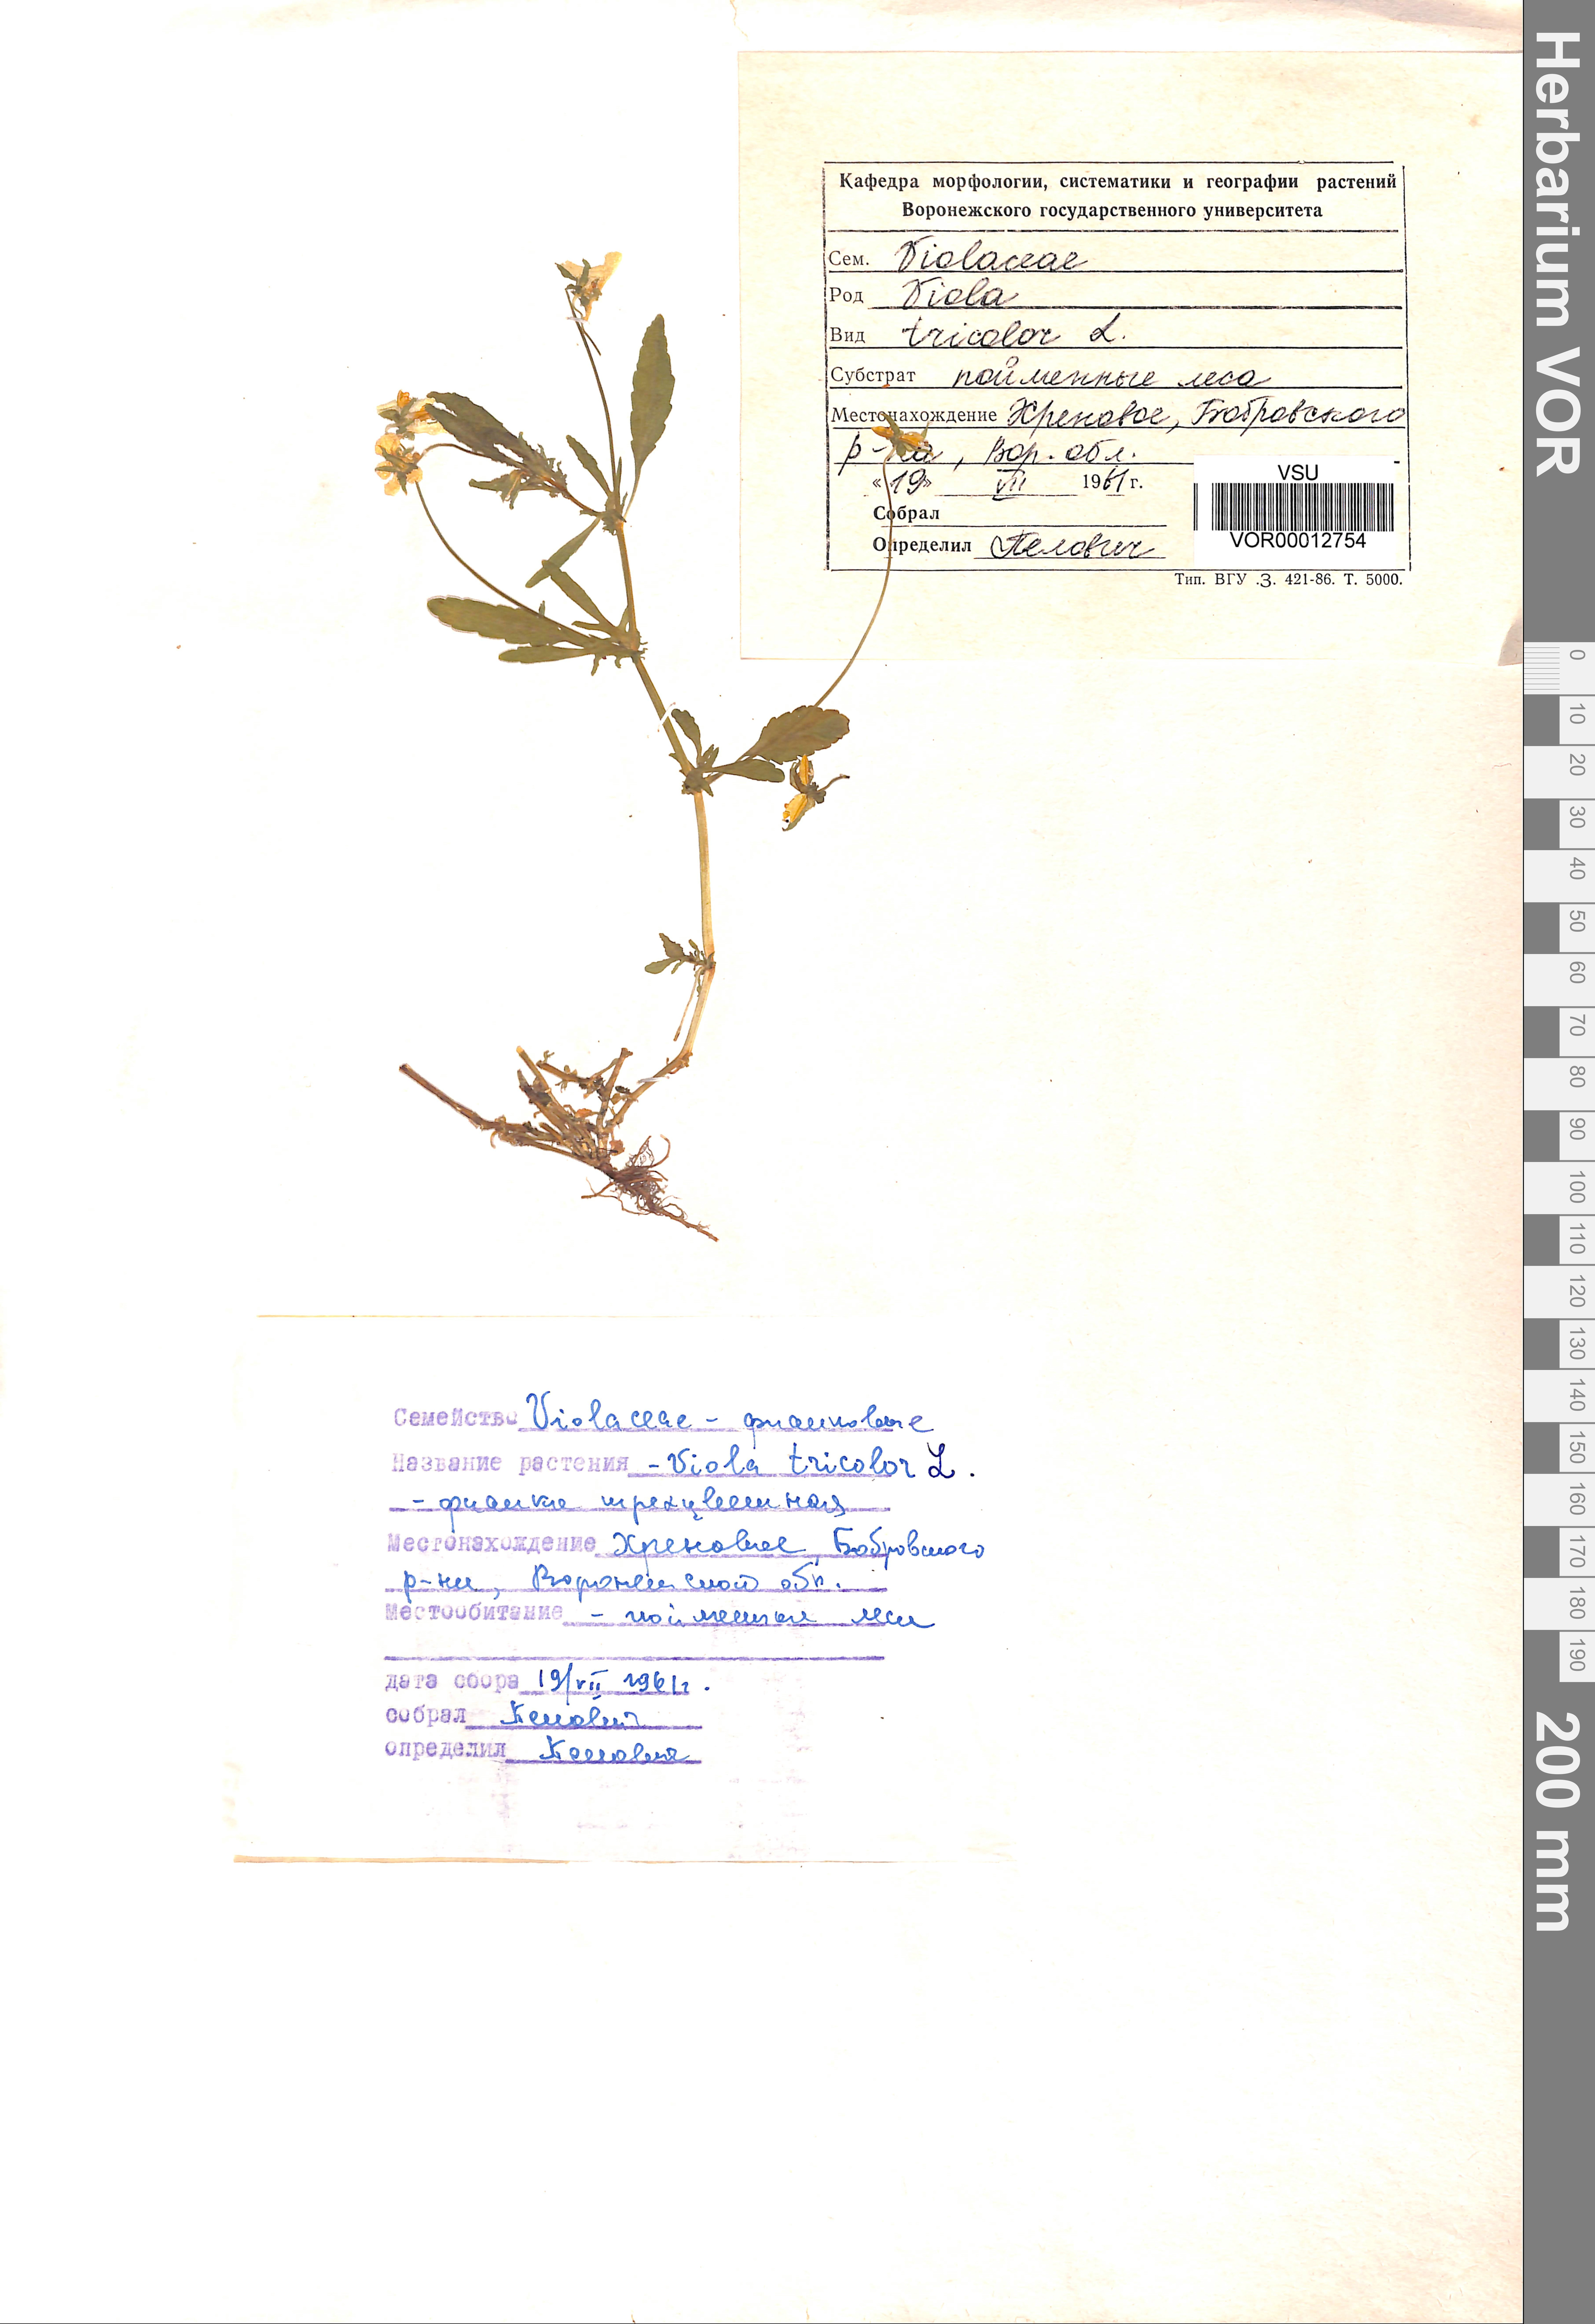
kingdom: Plantae
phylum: Tracheophyta
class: Magnoliopsida
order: Malpighiales
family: Violaceae
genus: Viola
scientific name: Viola tricolor
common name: Pansy
